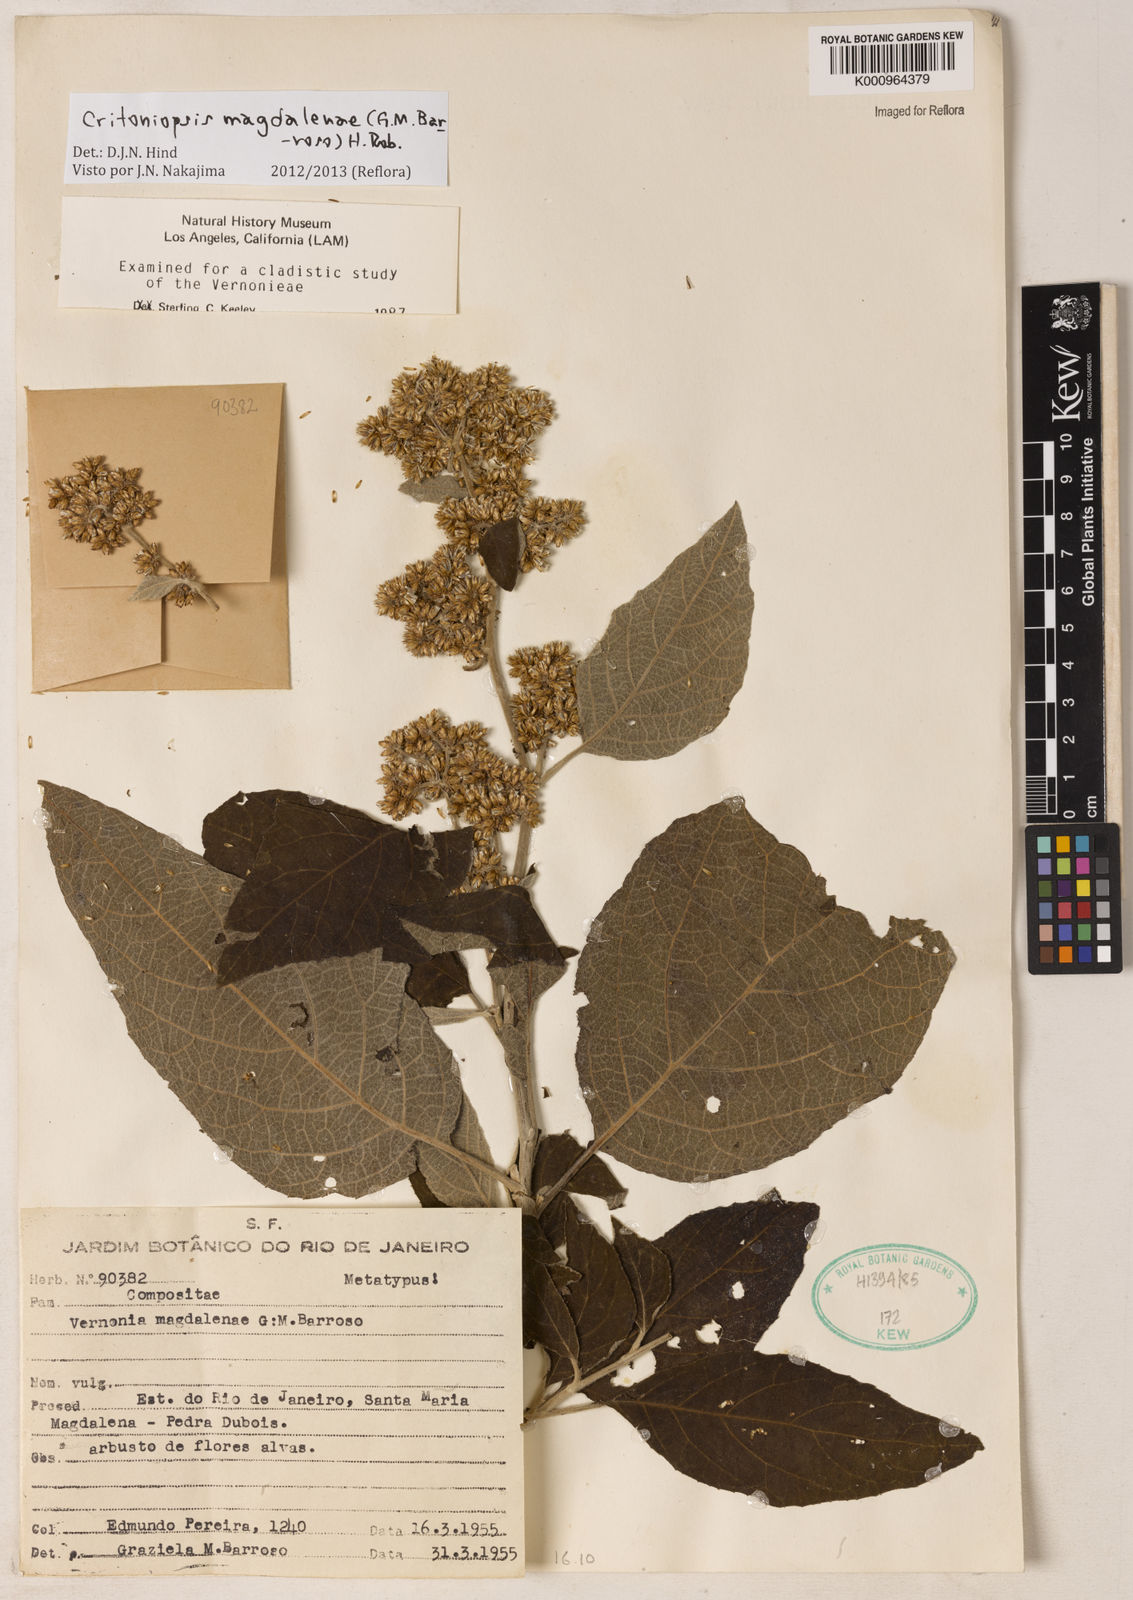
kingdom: Plantae
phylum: Tracheophyta
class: Magnoliopsida
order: Asterales
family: Asteraceae
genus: Critoniopsis
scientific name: Critoniopsis magdalenae
